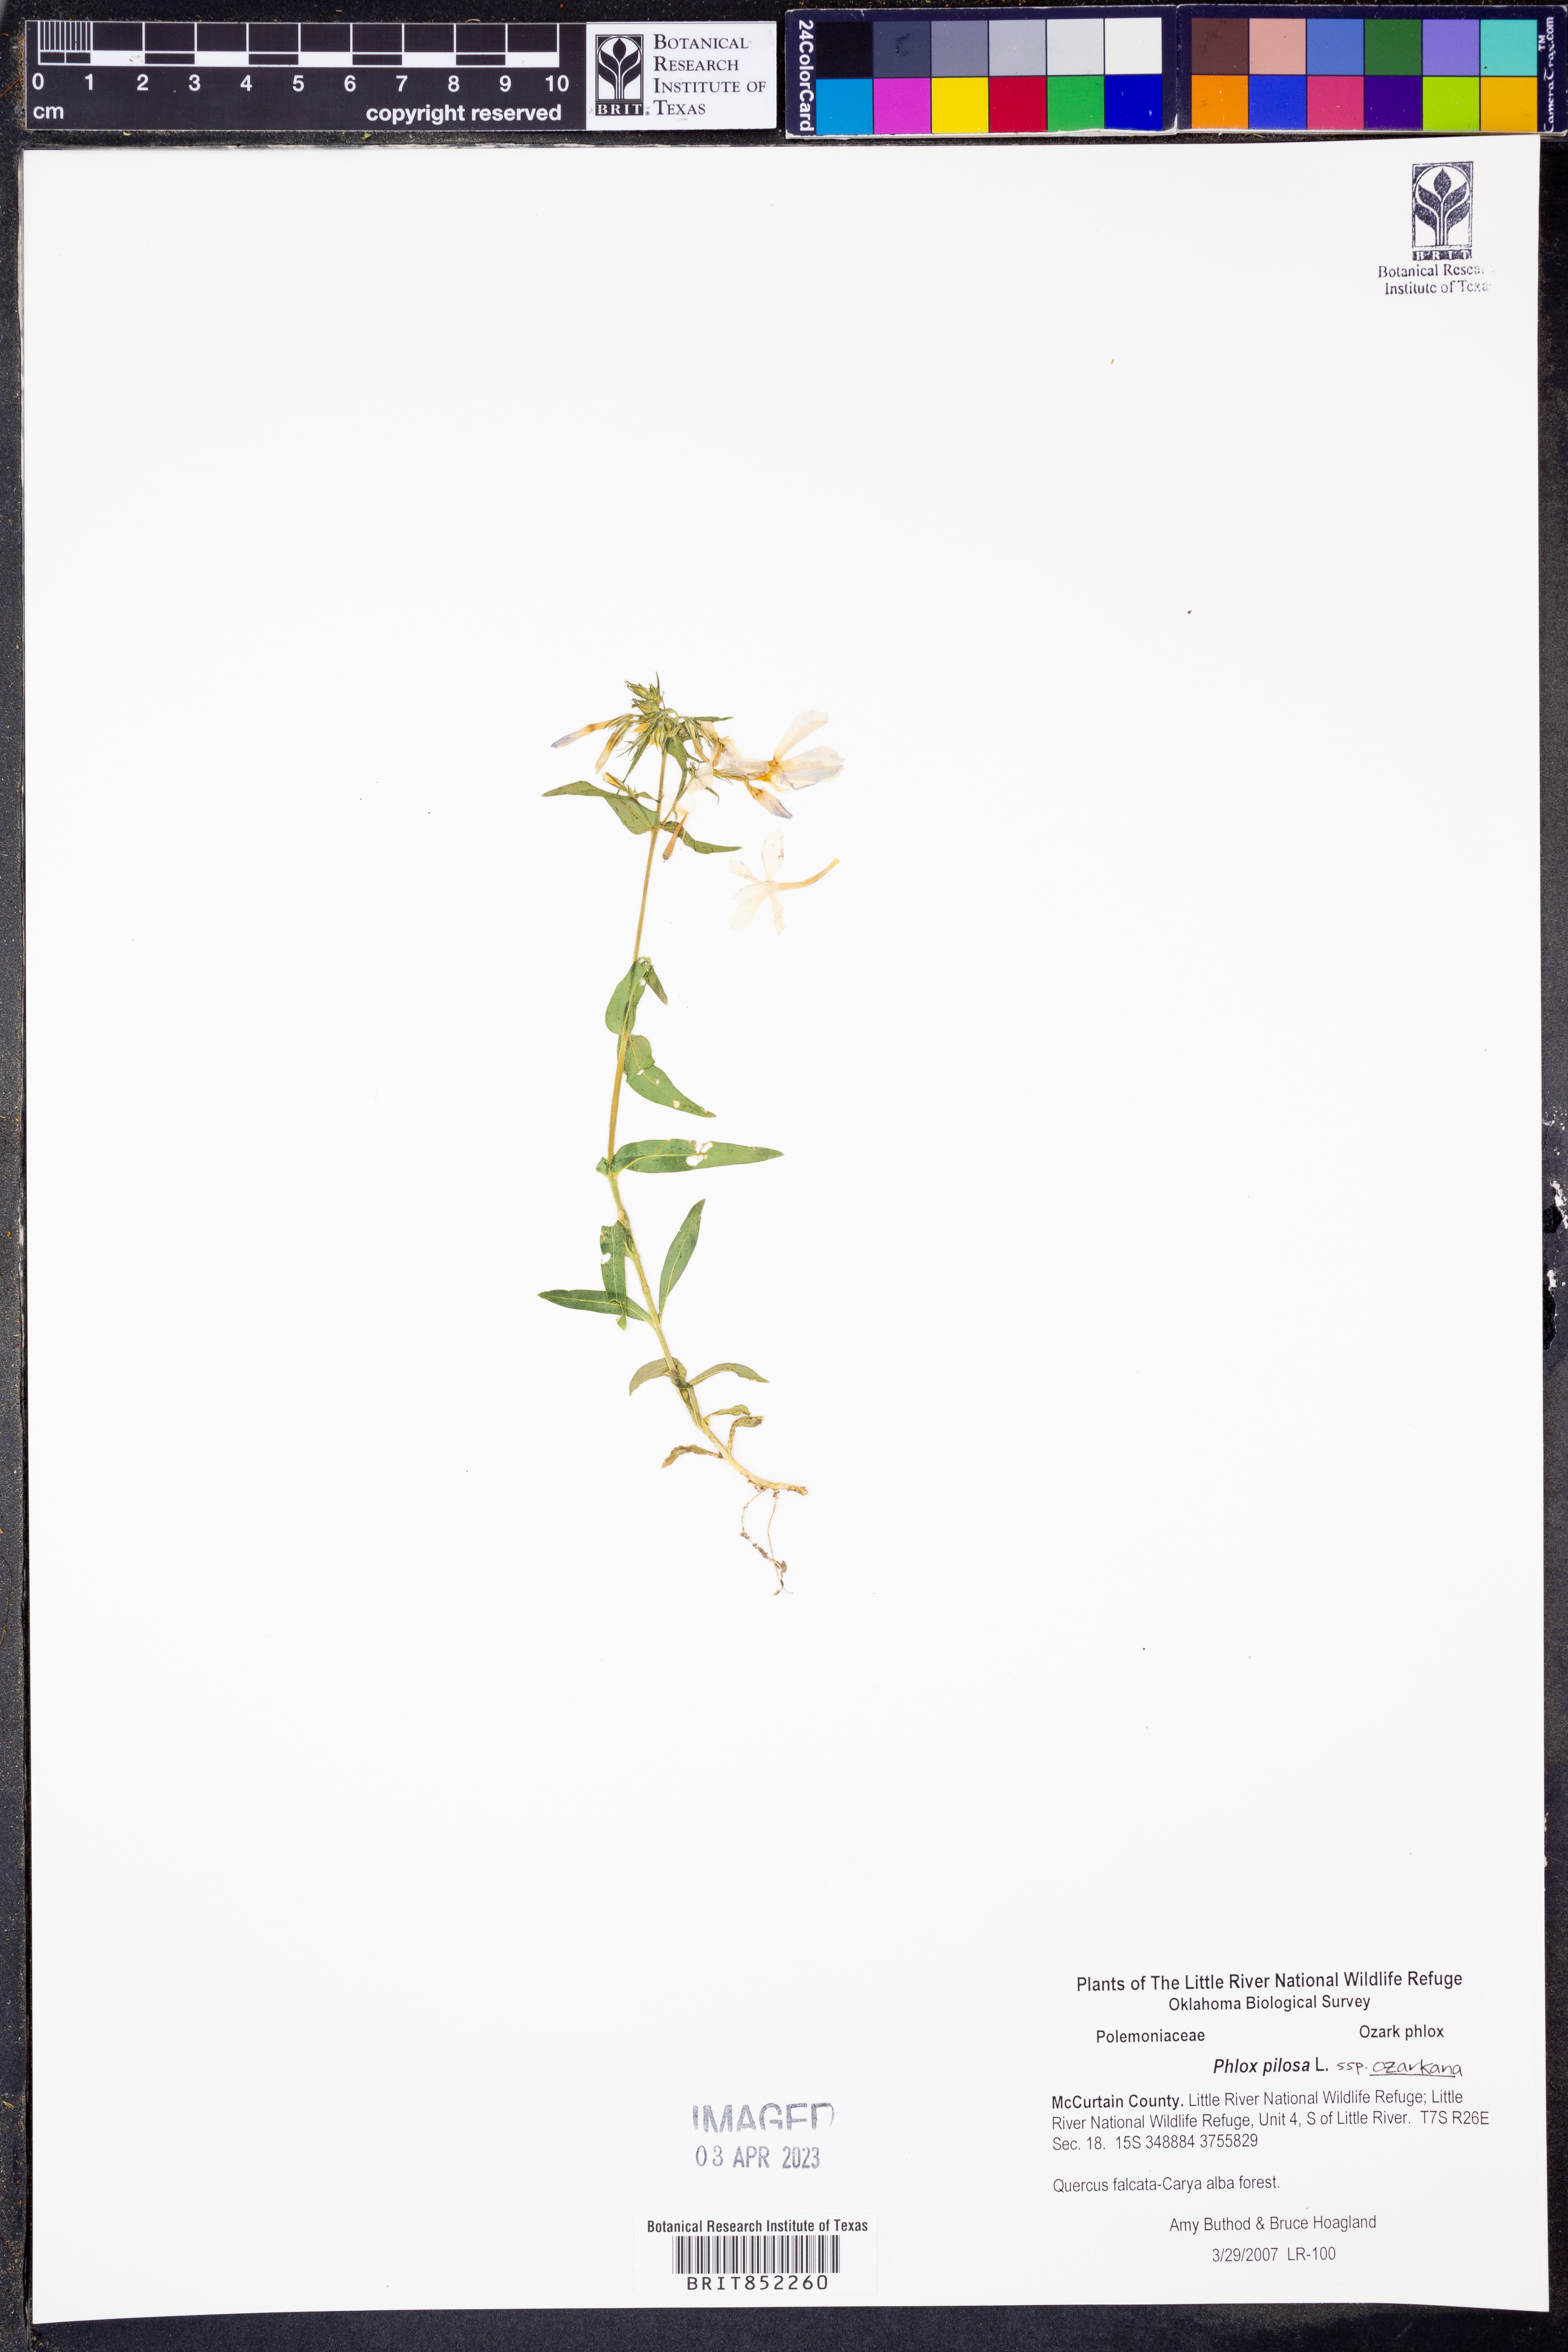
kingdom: Plantae
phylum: Tracheophyta
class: Magnoliopsida
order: Ericales
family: Polemoniaceae
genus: Phlox
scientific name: Phlox pilosa
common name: Prairie phlox
